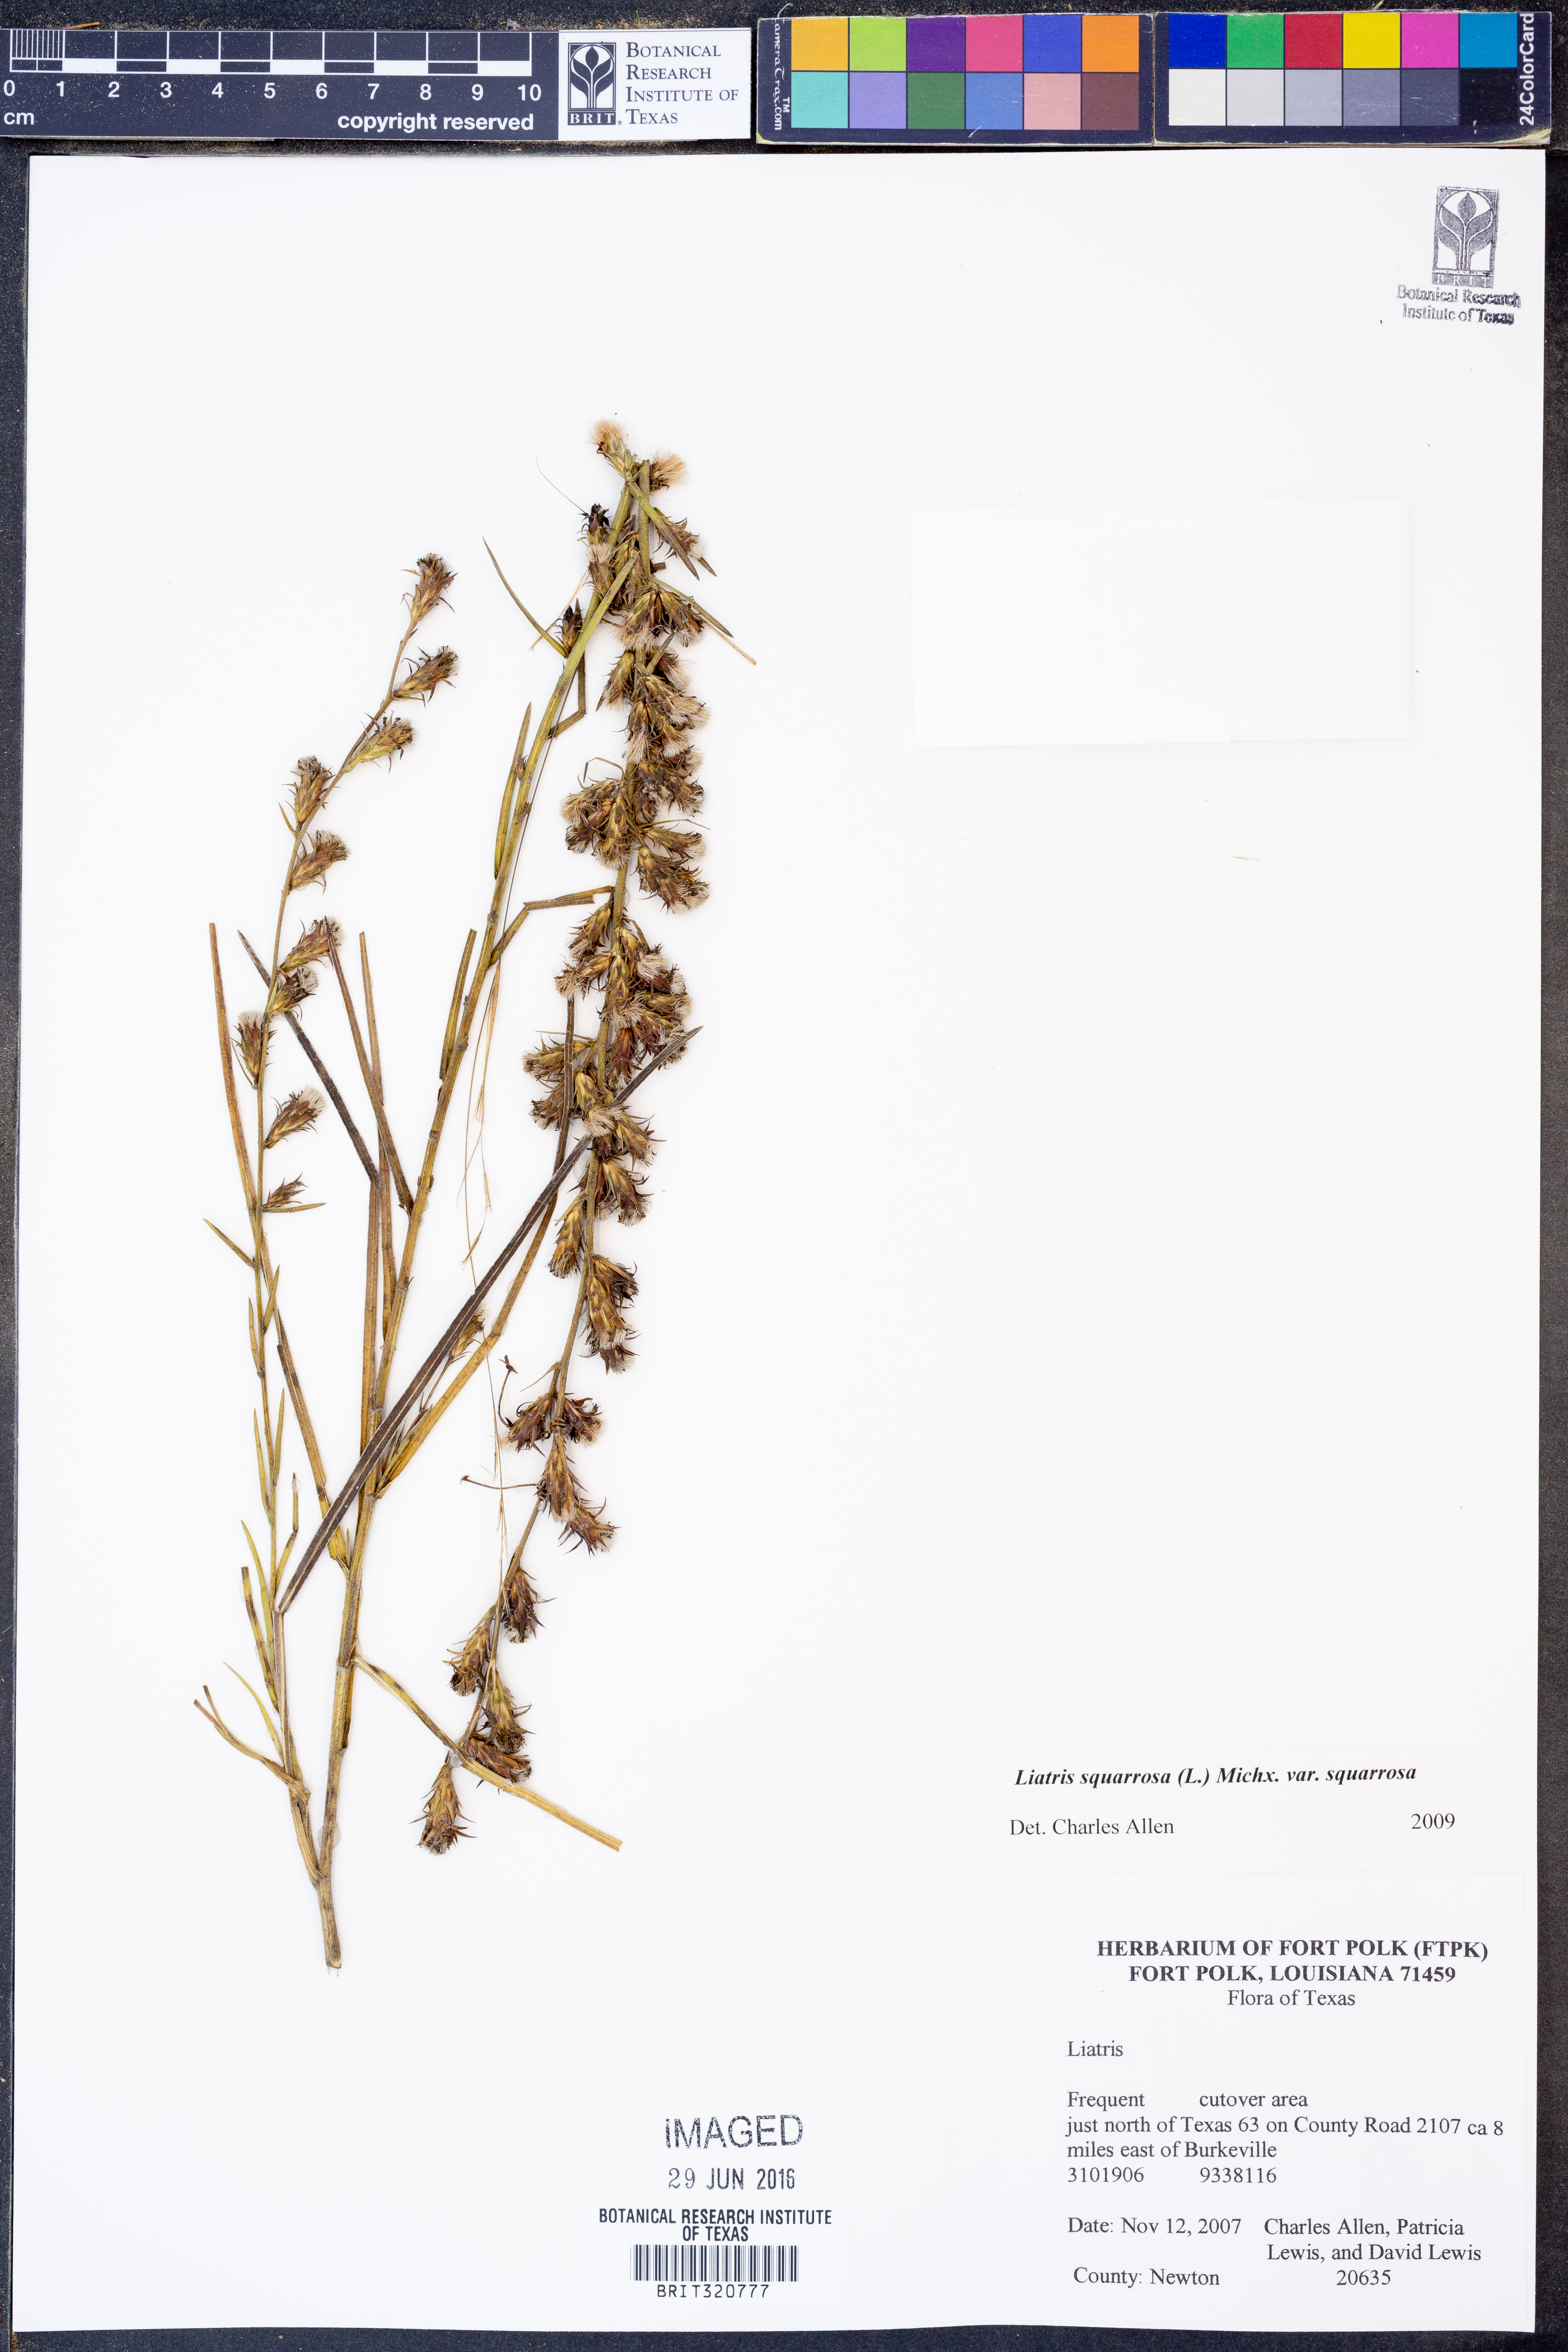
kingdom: Plantae
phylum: Tracheophyta
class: Magnoliopsida
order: Asterales
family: Asteraceae
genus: Liatris
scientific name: Liatris squarrosa
